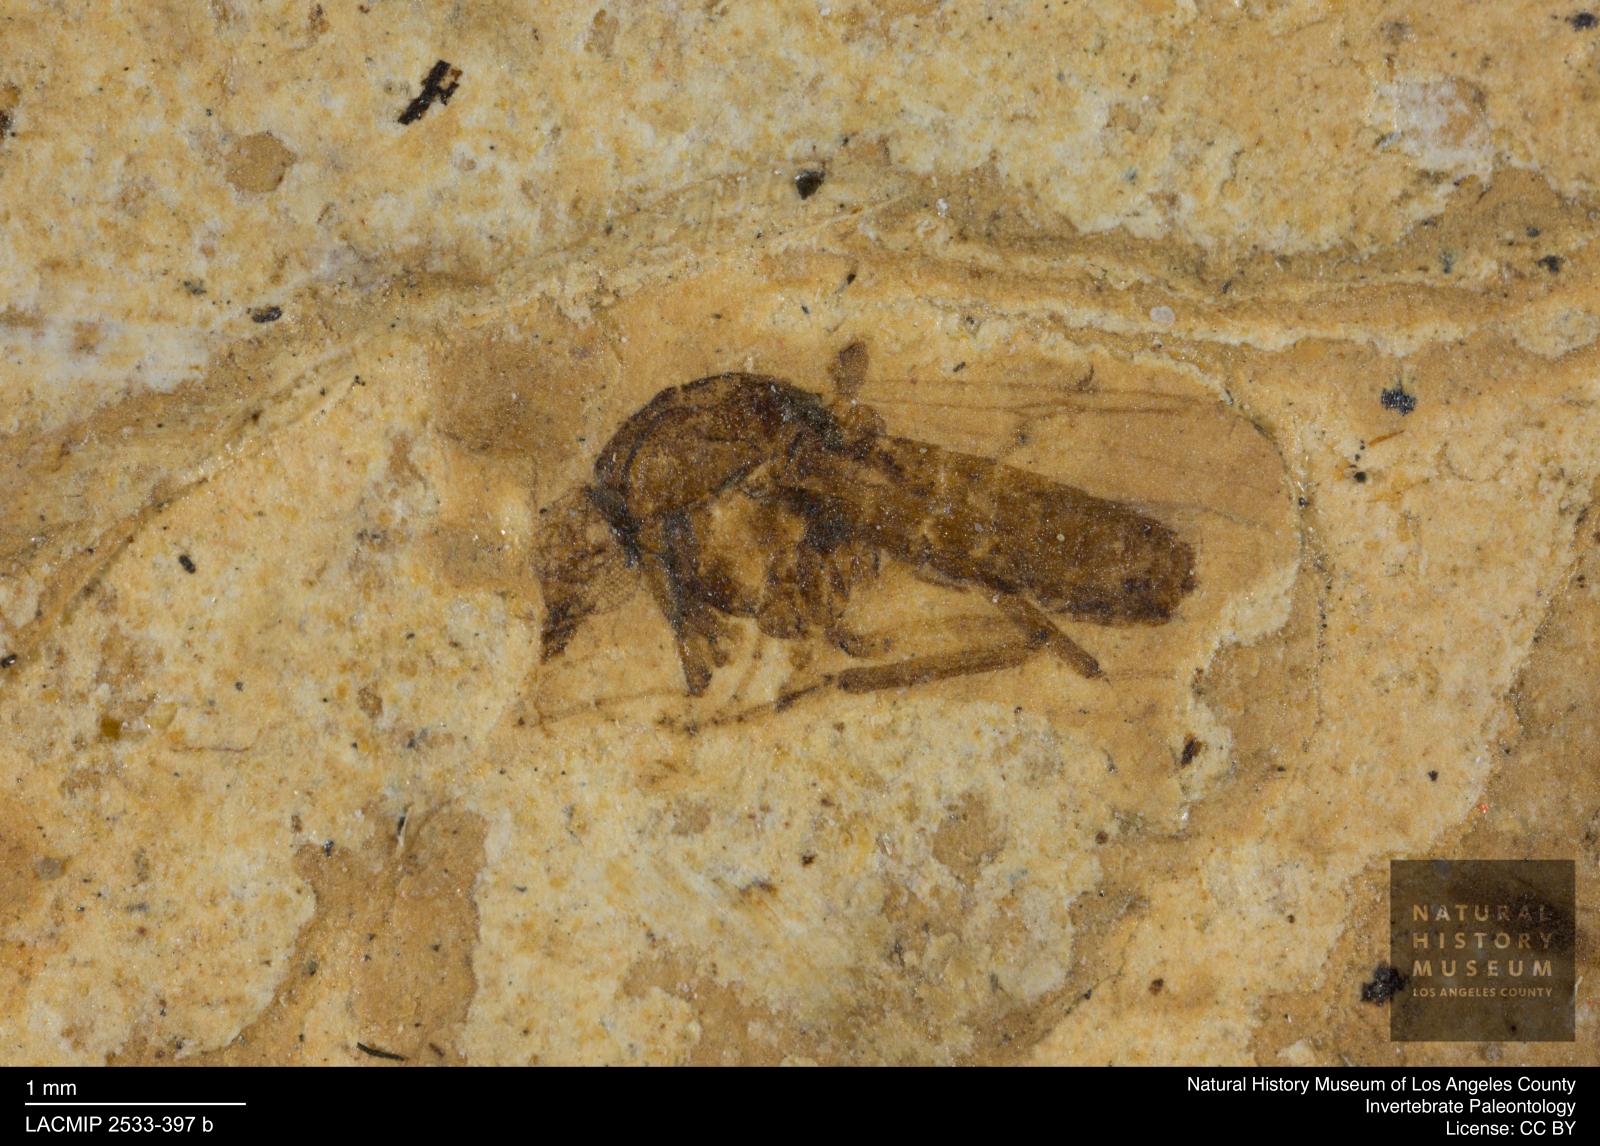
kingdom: Animalia
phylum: Arthropoda
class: Insecta
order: Diptera
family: Ceratopogonidae
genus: Stilobezzia
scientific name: Stilobezzia veterana
